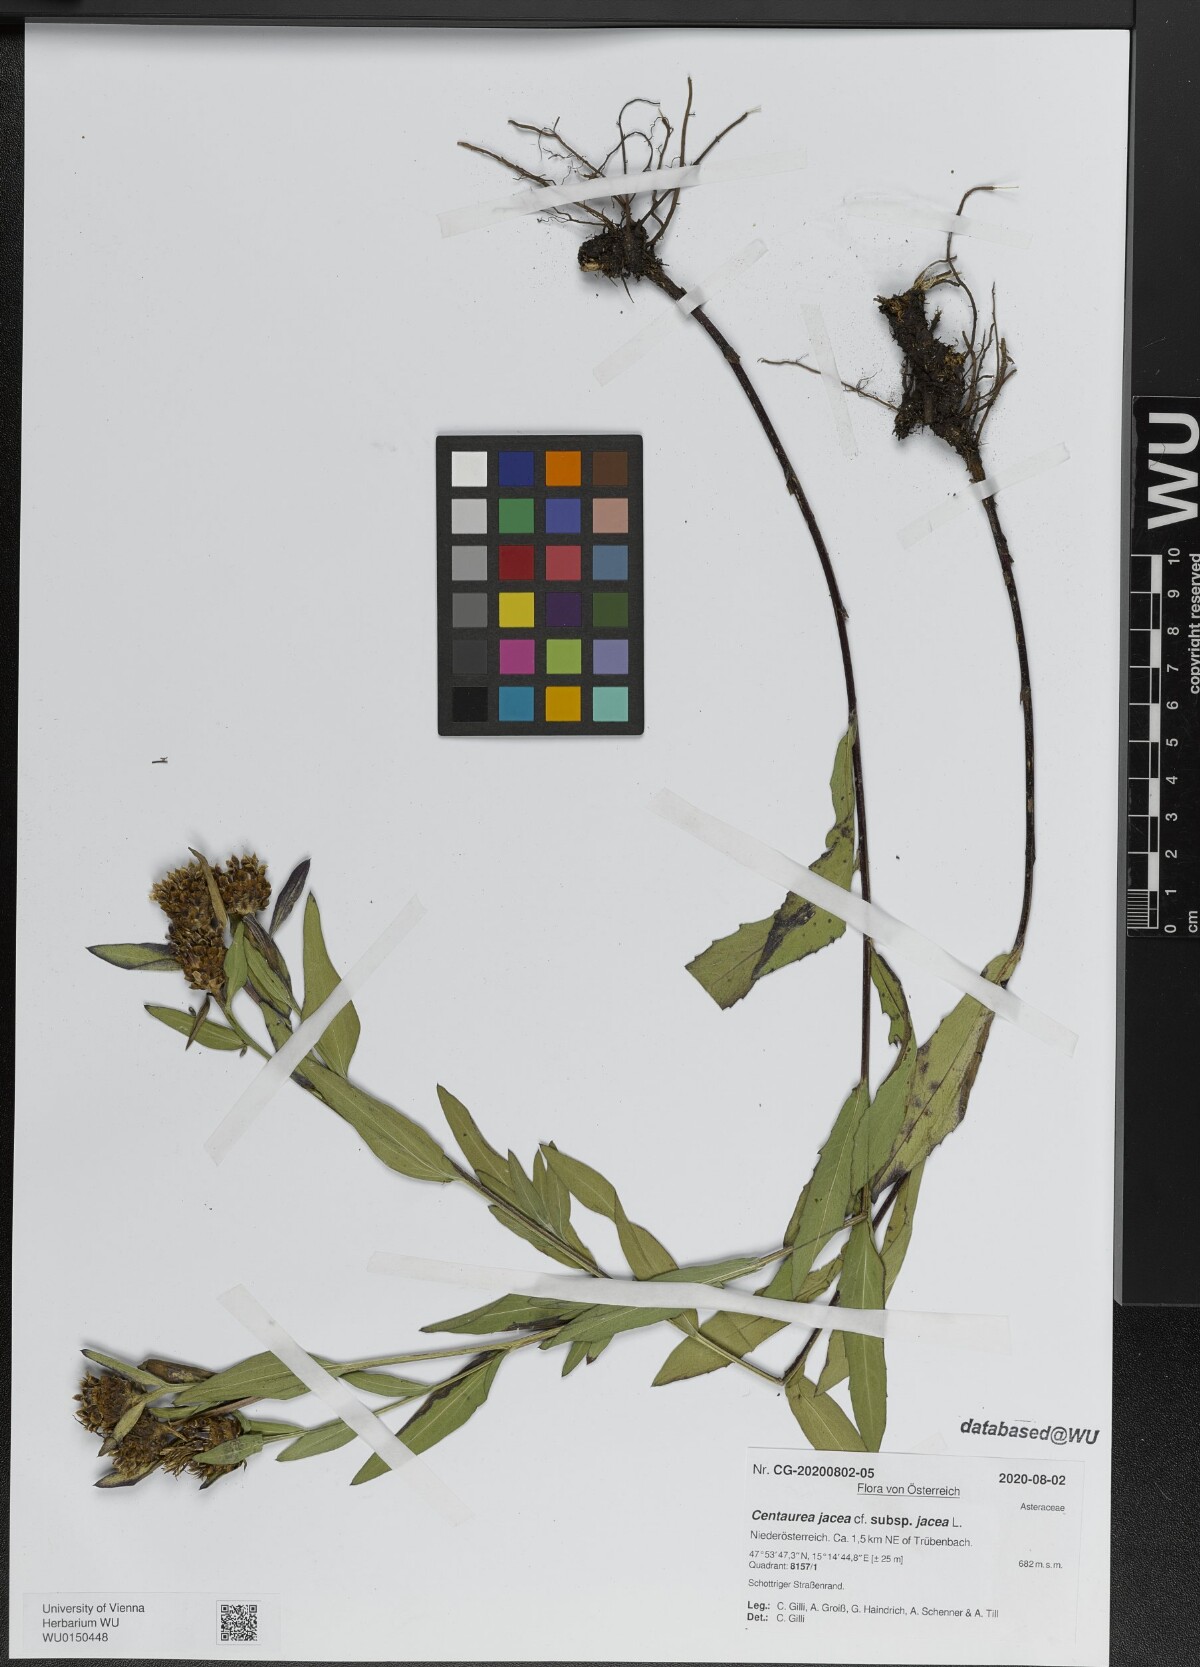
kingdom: Plantae
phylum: Tracheophyta
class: Magnoliopsida
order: Asterales
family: Asteraceae
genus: Centaurea
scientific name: Centaurea jacea
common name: Brown knapweed
